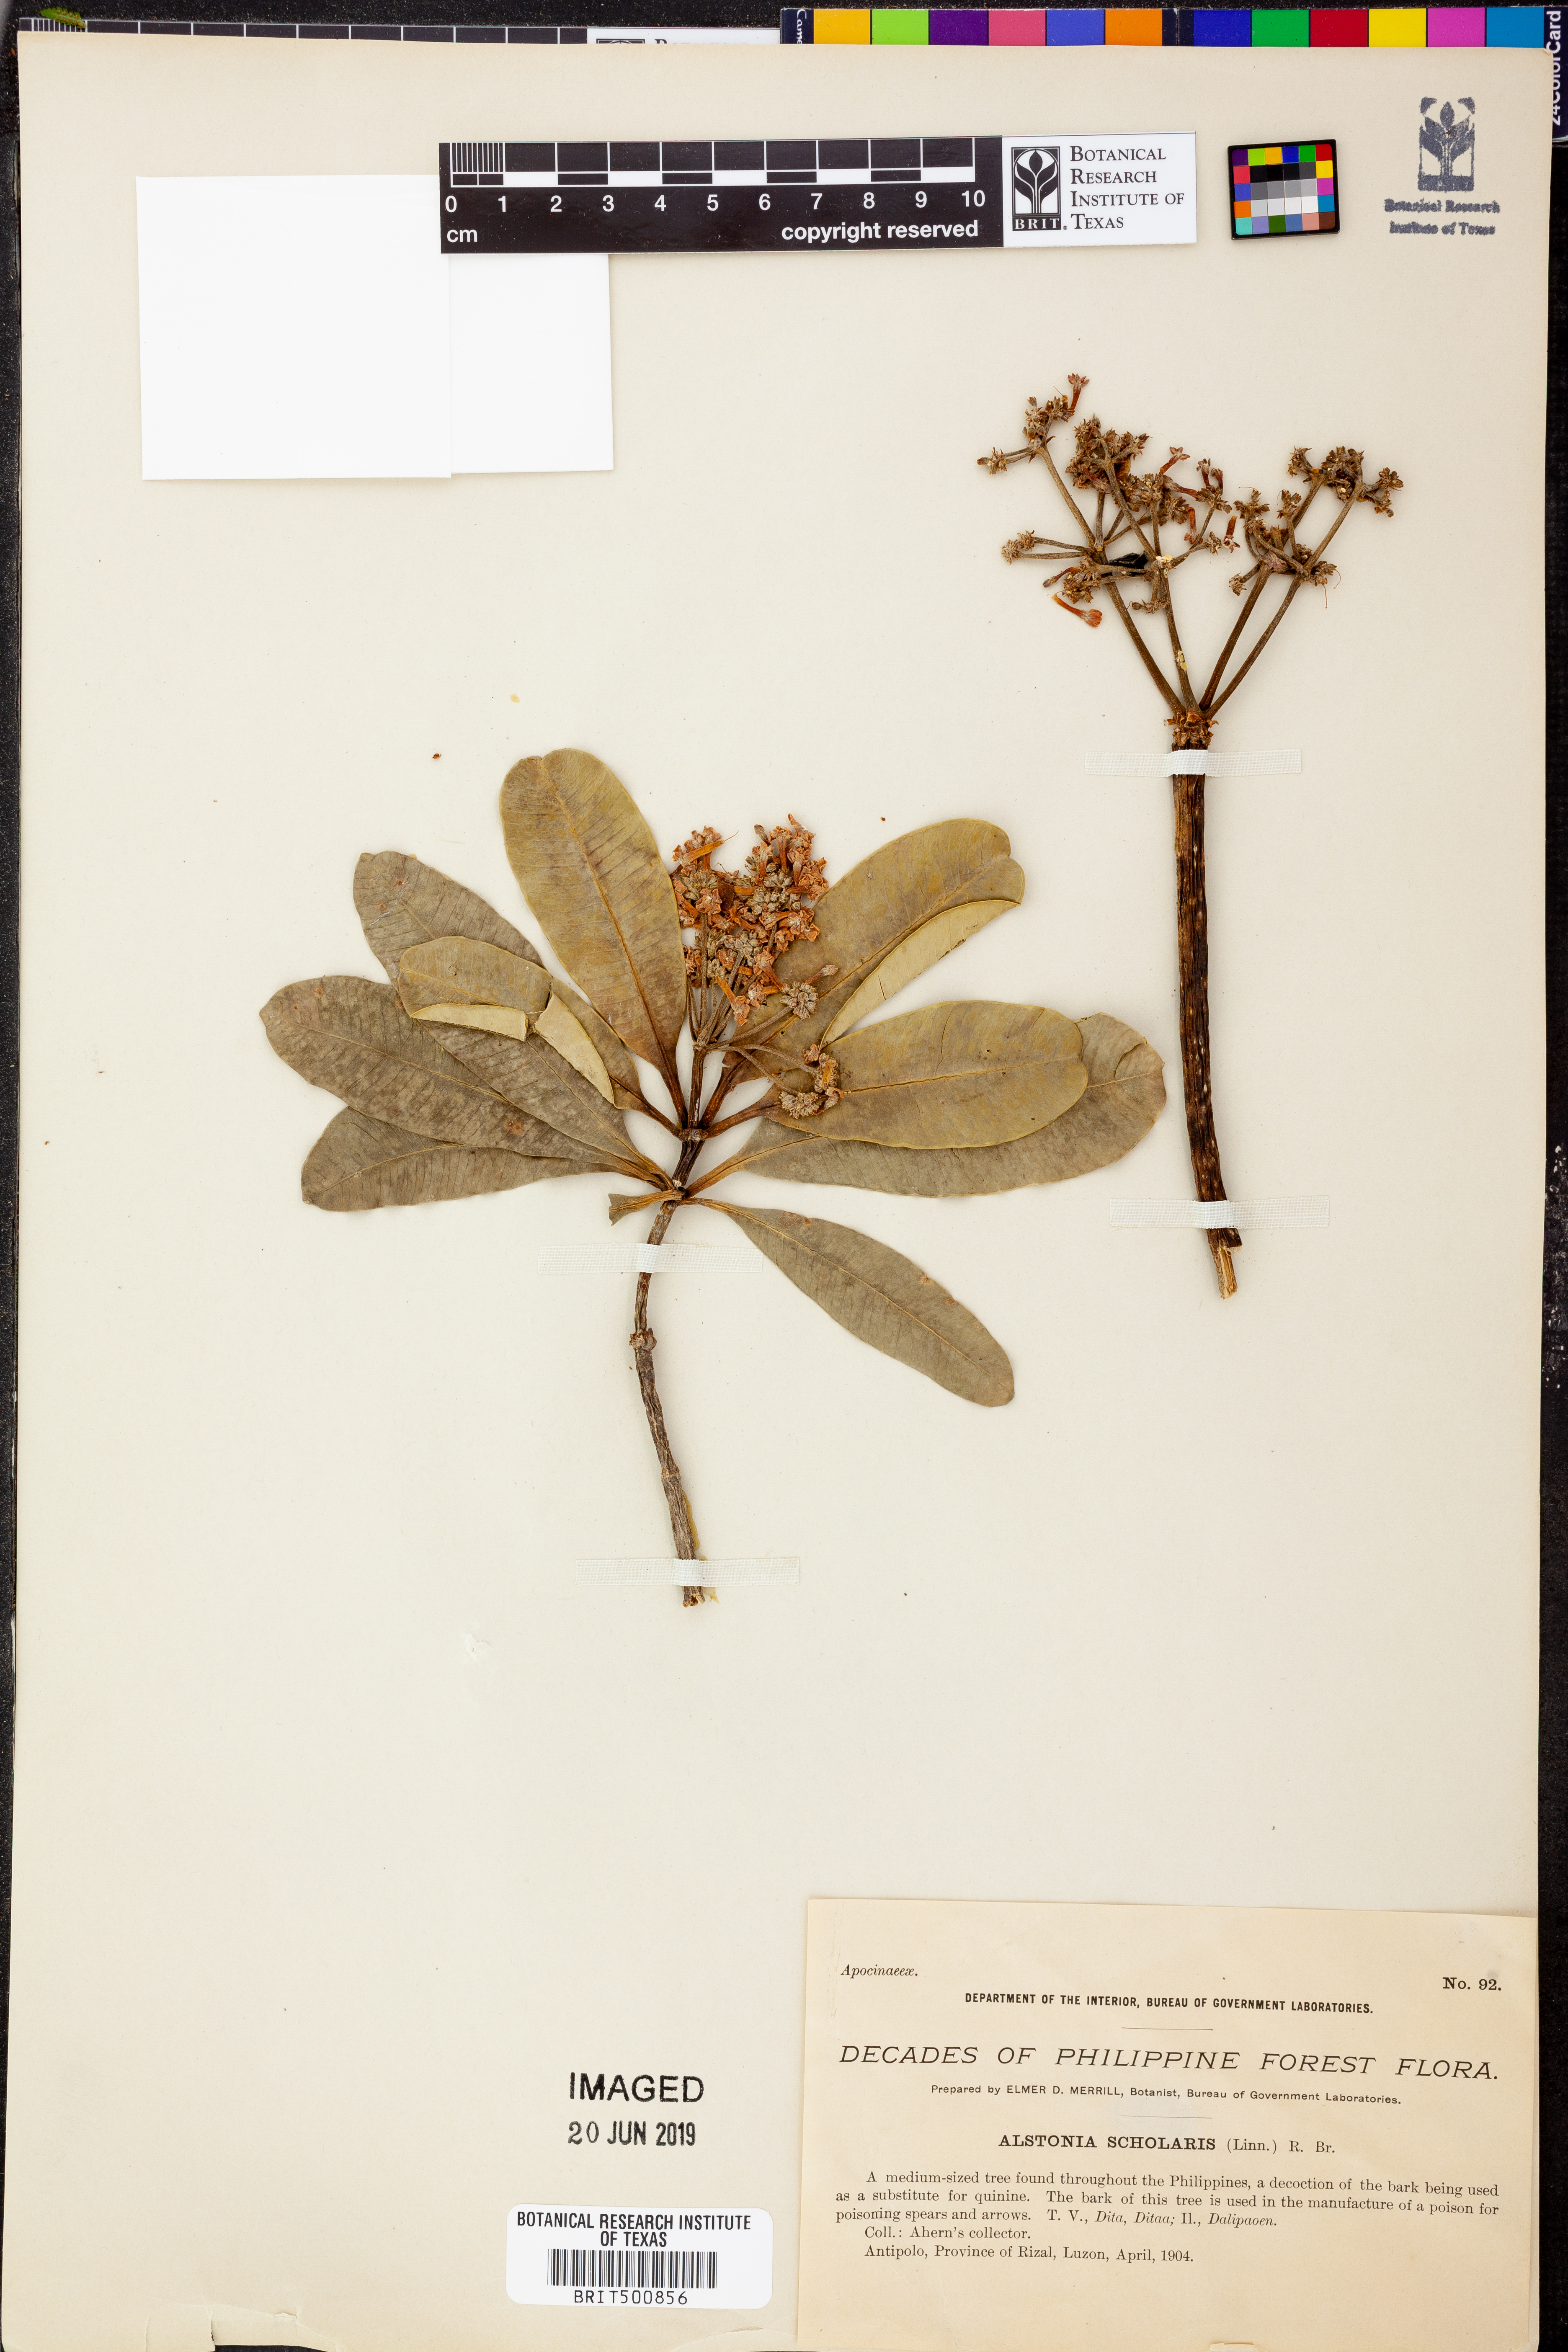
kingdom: Plantae
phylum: Tracheophyta
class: Magnoliopsida
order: Gentianales
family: Apocynaceae
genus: Alstonia
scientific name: Alstonia scholaris
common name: White cheesewood
